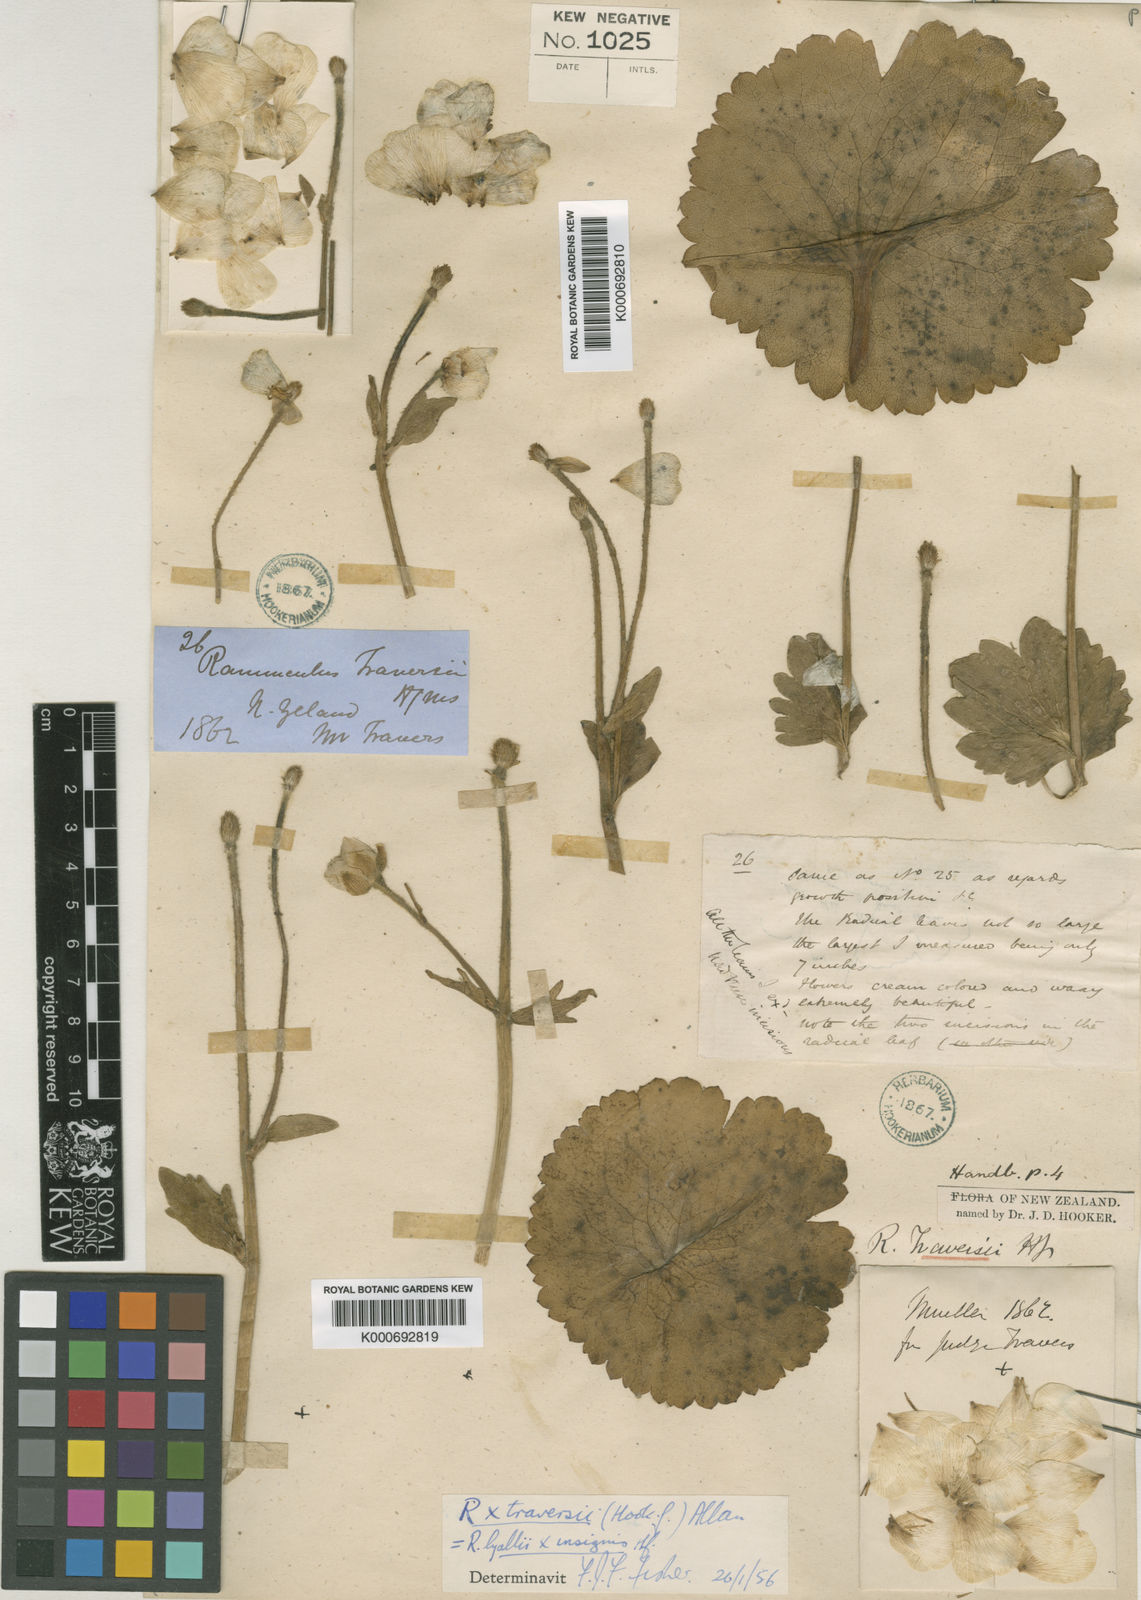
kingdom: Plantae
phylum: Tracheophyta
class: Magnoliopsida
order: Ranunculales
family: Ranunculaceae
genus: Ranunculus
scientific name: Ranunculus lyallii
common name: Mountain-lily
